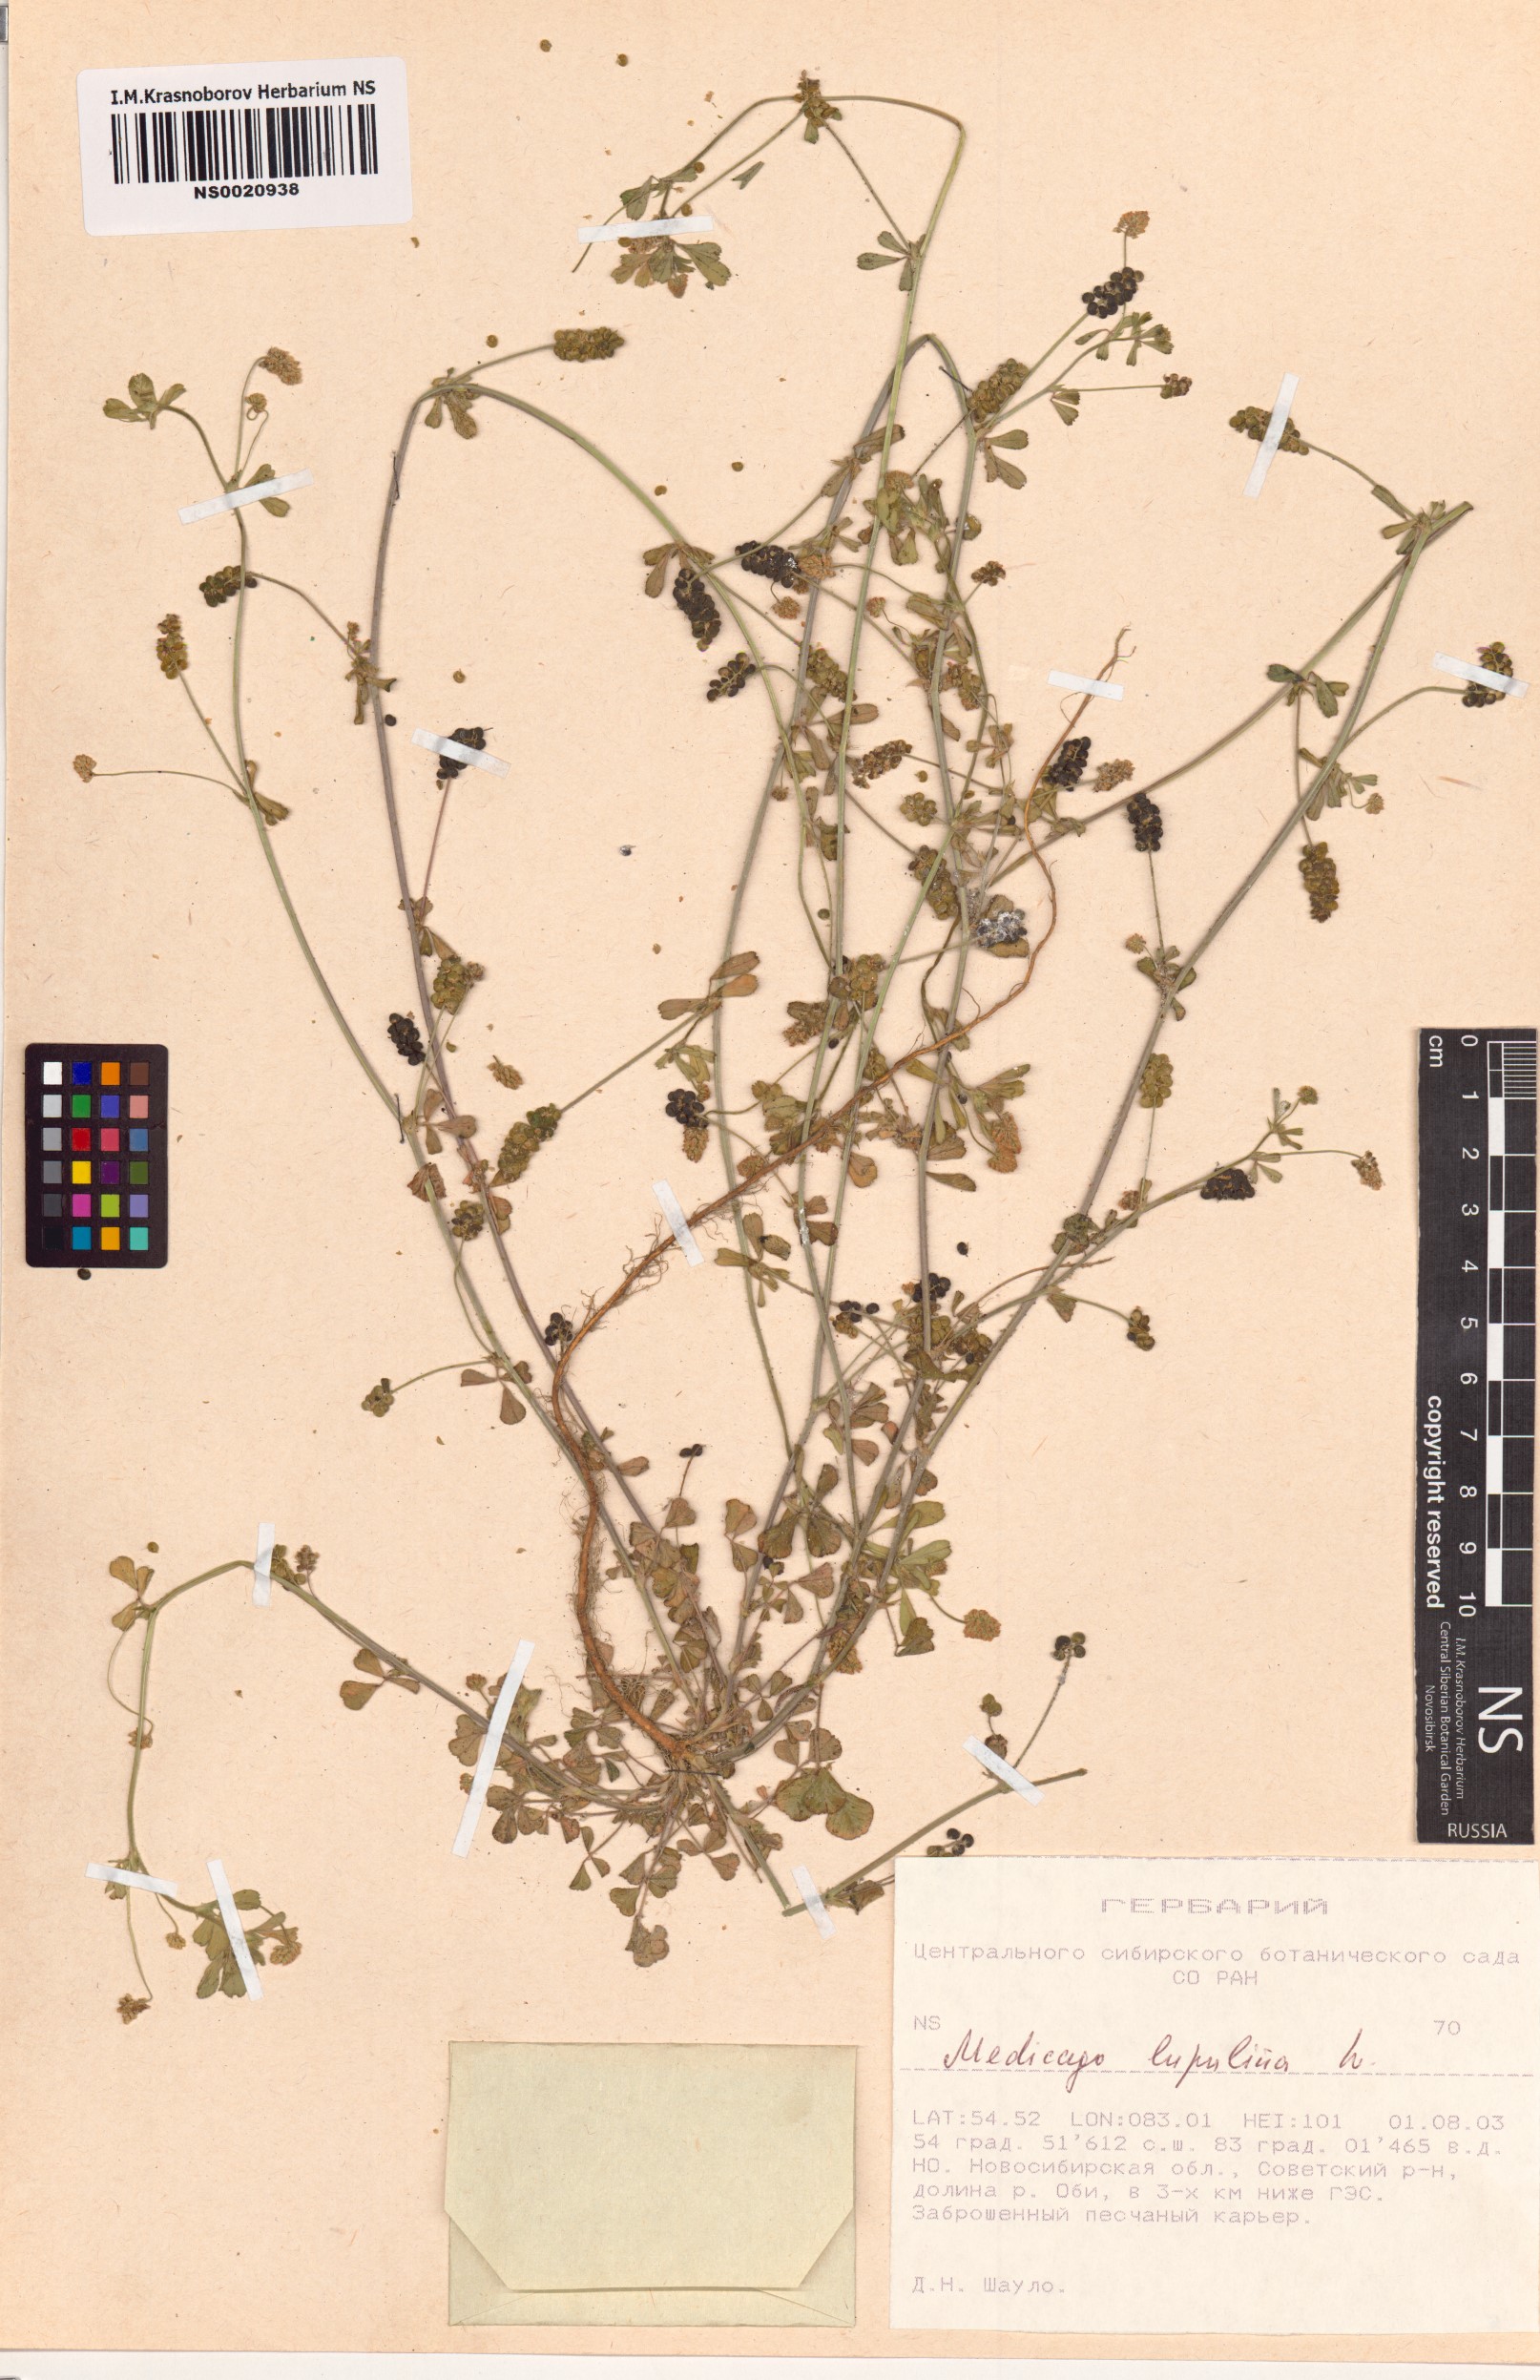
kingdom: Plantae
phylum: Tracheophyta
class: Magnoliopsida
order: Fabales
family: Fabaceae
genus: Medicago
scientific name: Medicago lupulina
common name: Black medick
